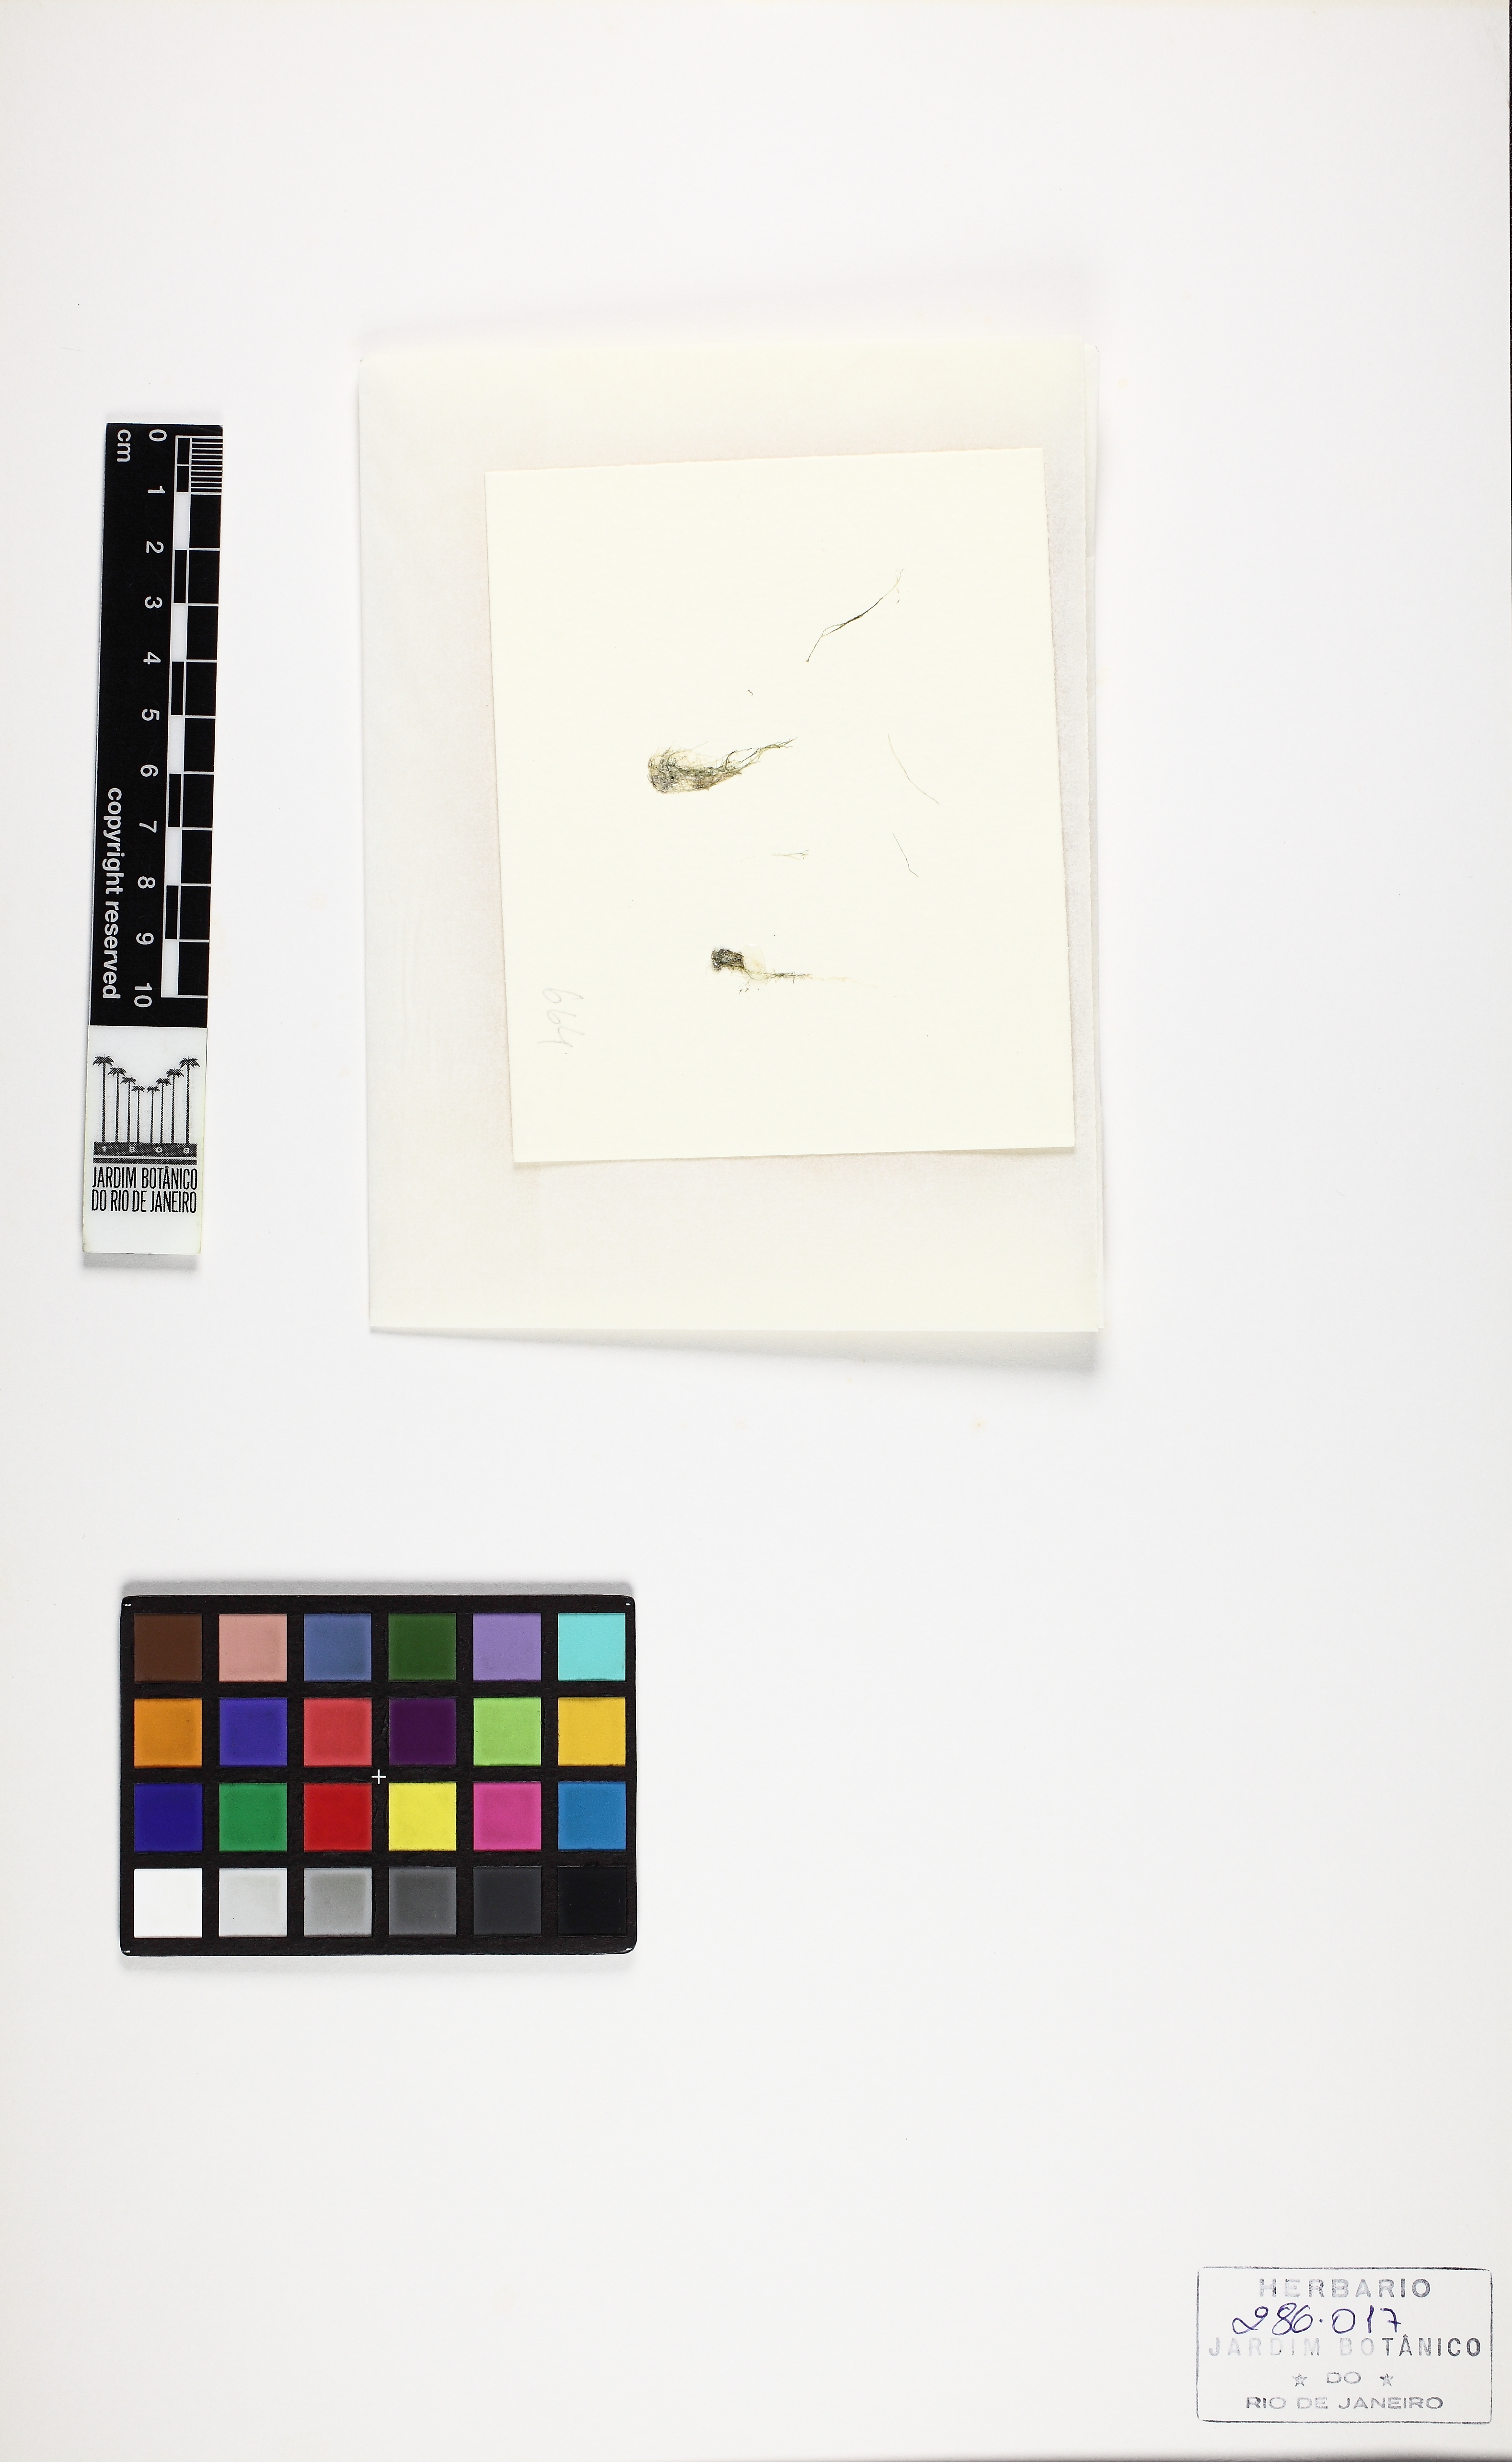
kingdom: Plantae
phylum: Rhodophyta
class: Florideophyceae
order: Ceramiales
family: Rhodomelaceae
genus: Chondria
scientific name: Chondria polyrhiza
